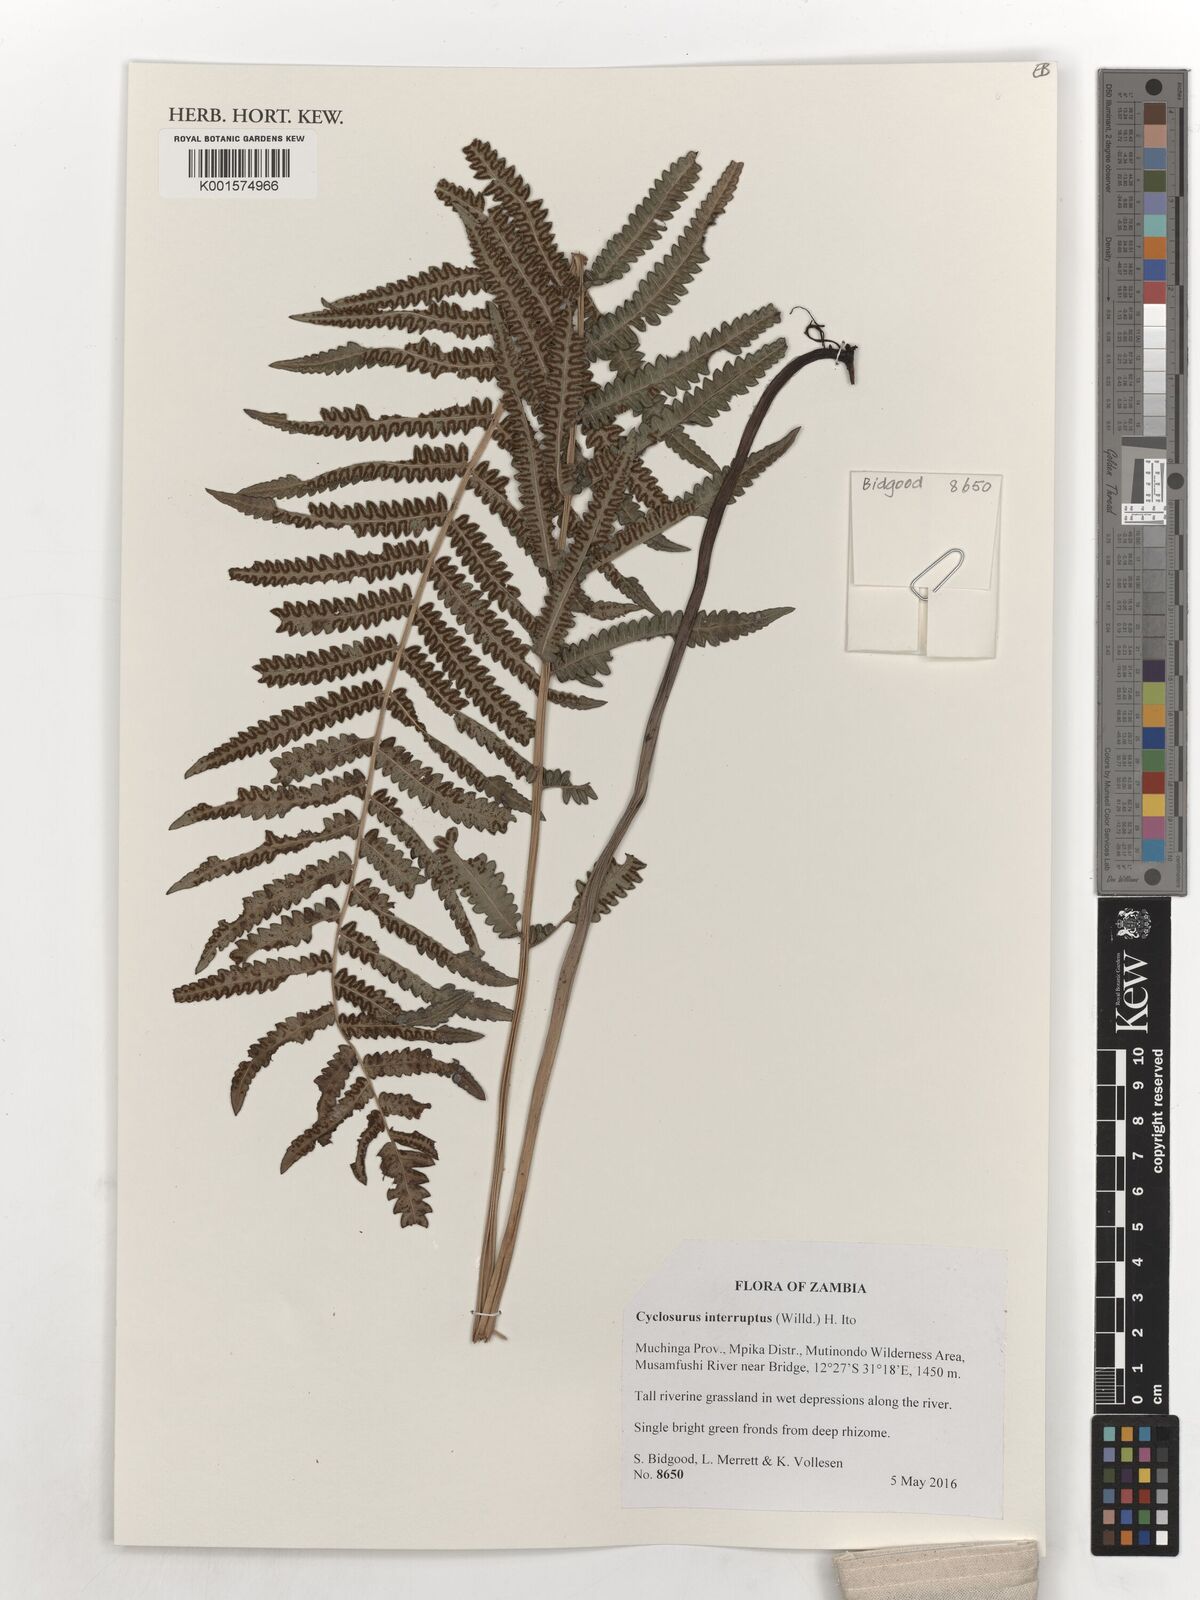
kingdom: Plantae
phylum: Tracheophyta
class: Polypodiopsida
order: Polypodiales
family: Thelypteridaceae
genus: Cyclosorus
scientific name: Cyclosorus interruptus
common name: Neke fern
